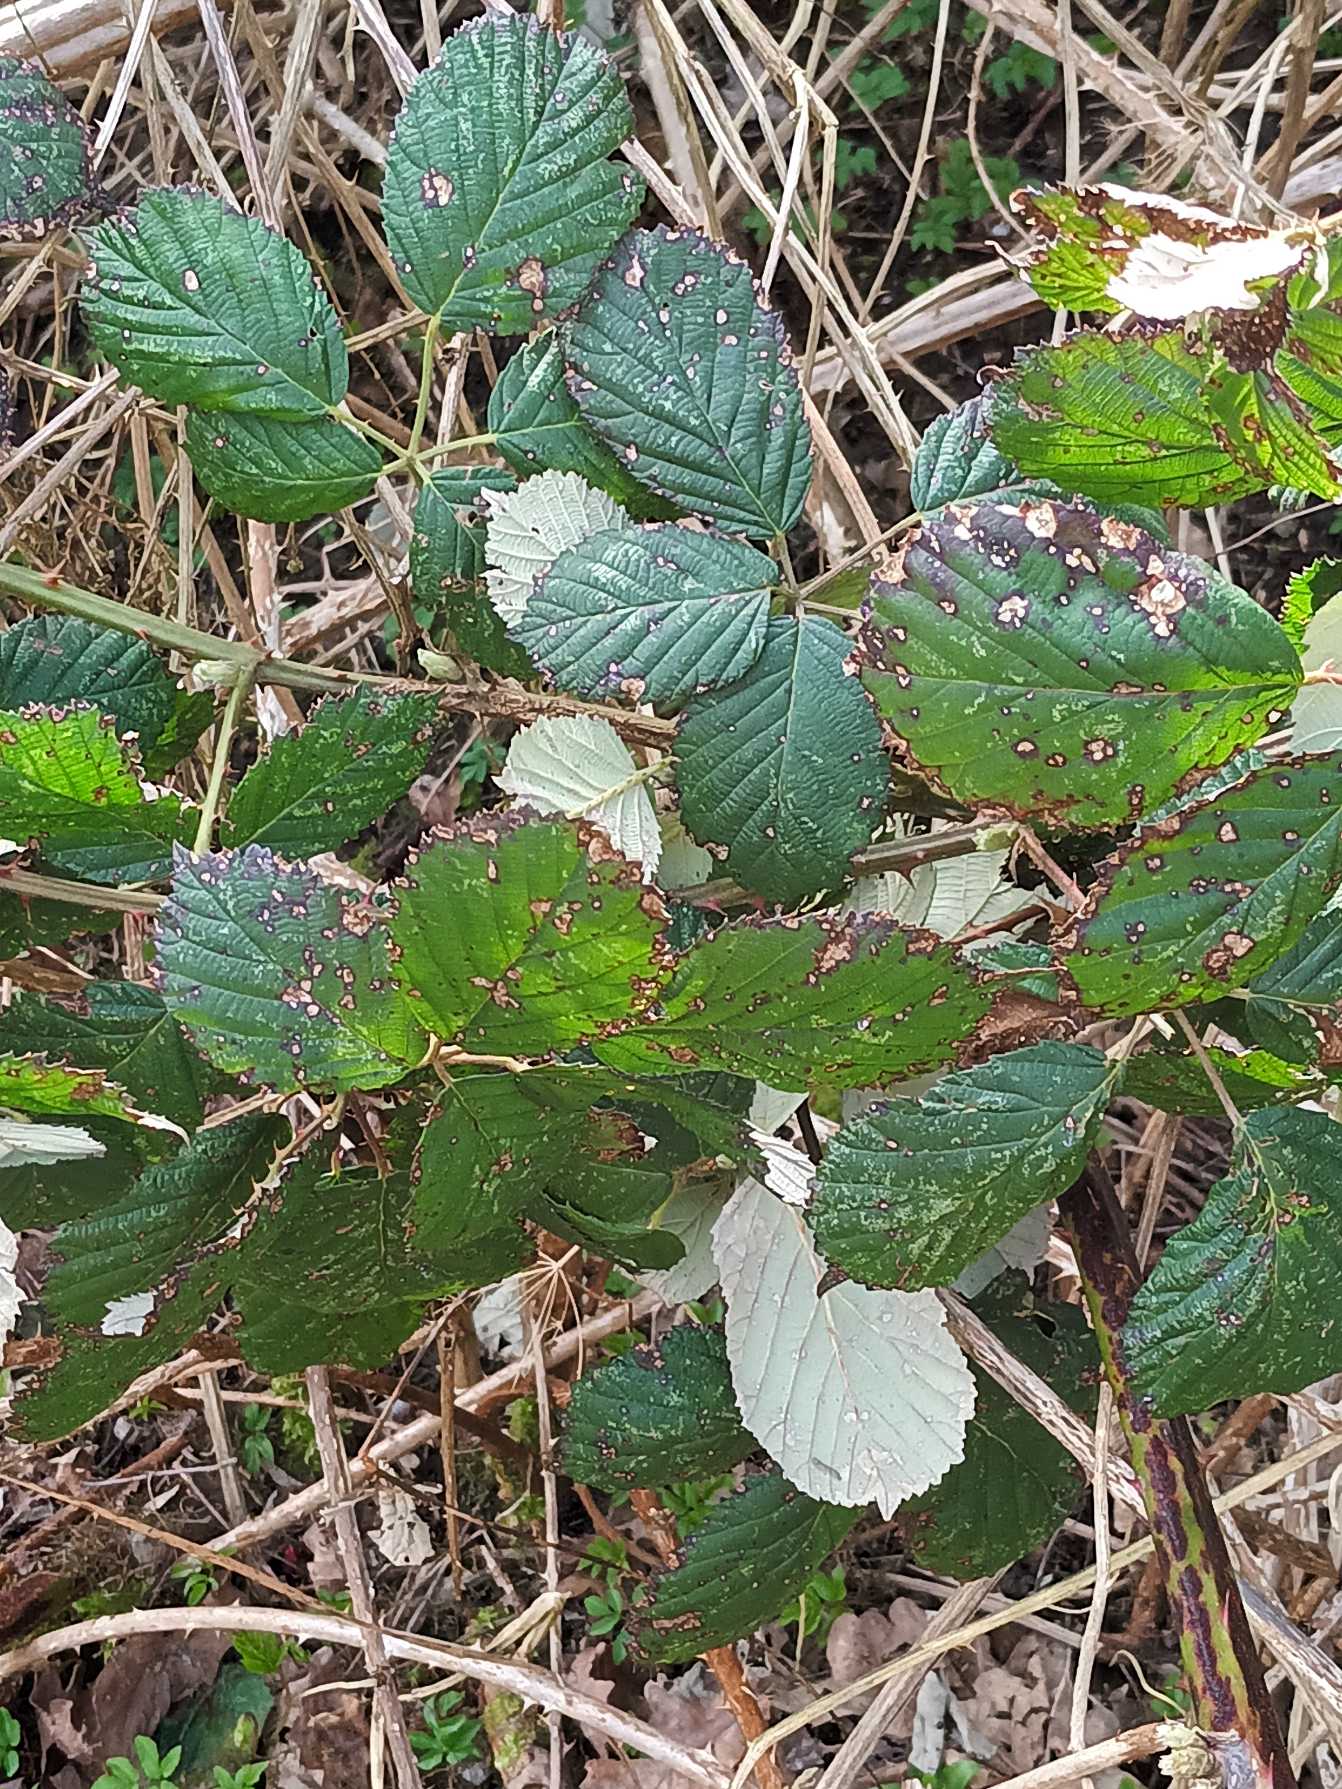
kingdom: Plantae
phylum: Tracheophyta
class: Magnoliopsida
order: Rosales
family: Rosaceae
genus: Rubus
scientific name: Rubus armeniacus
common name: Armensk brombær
